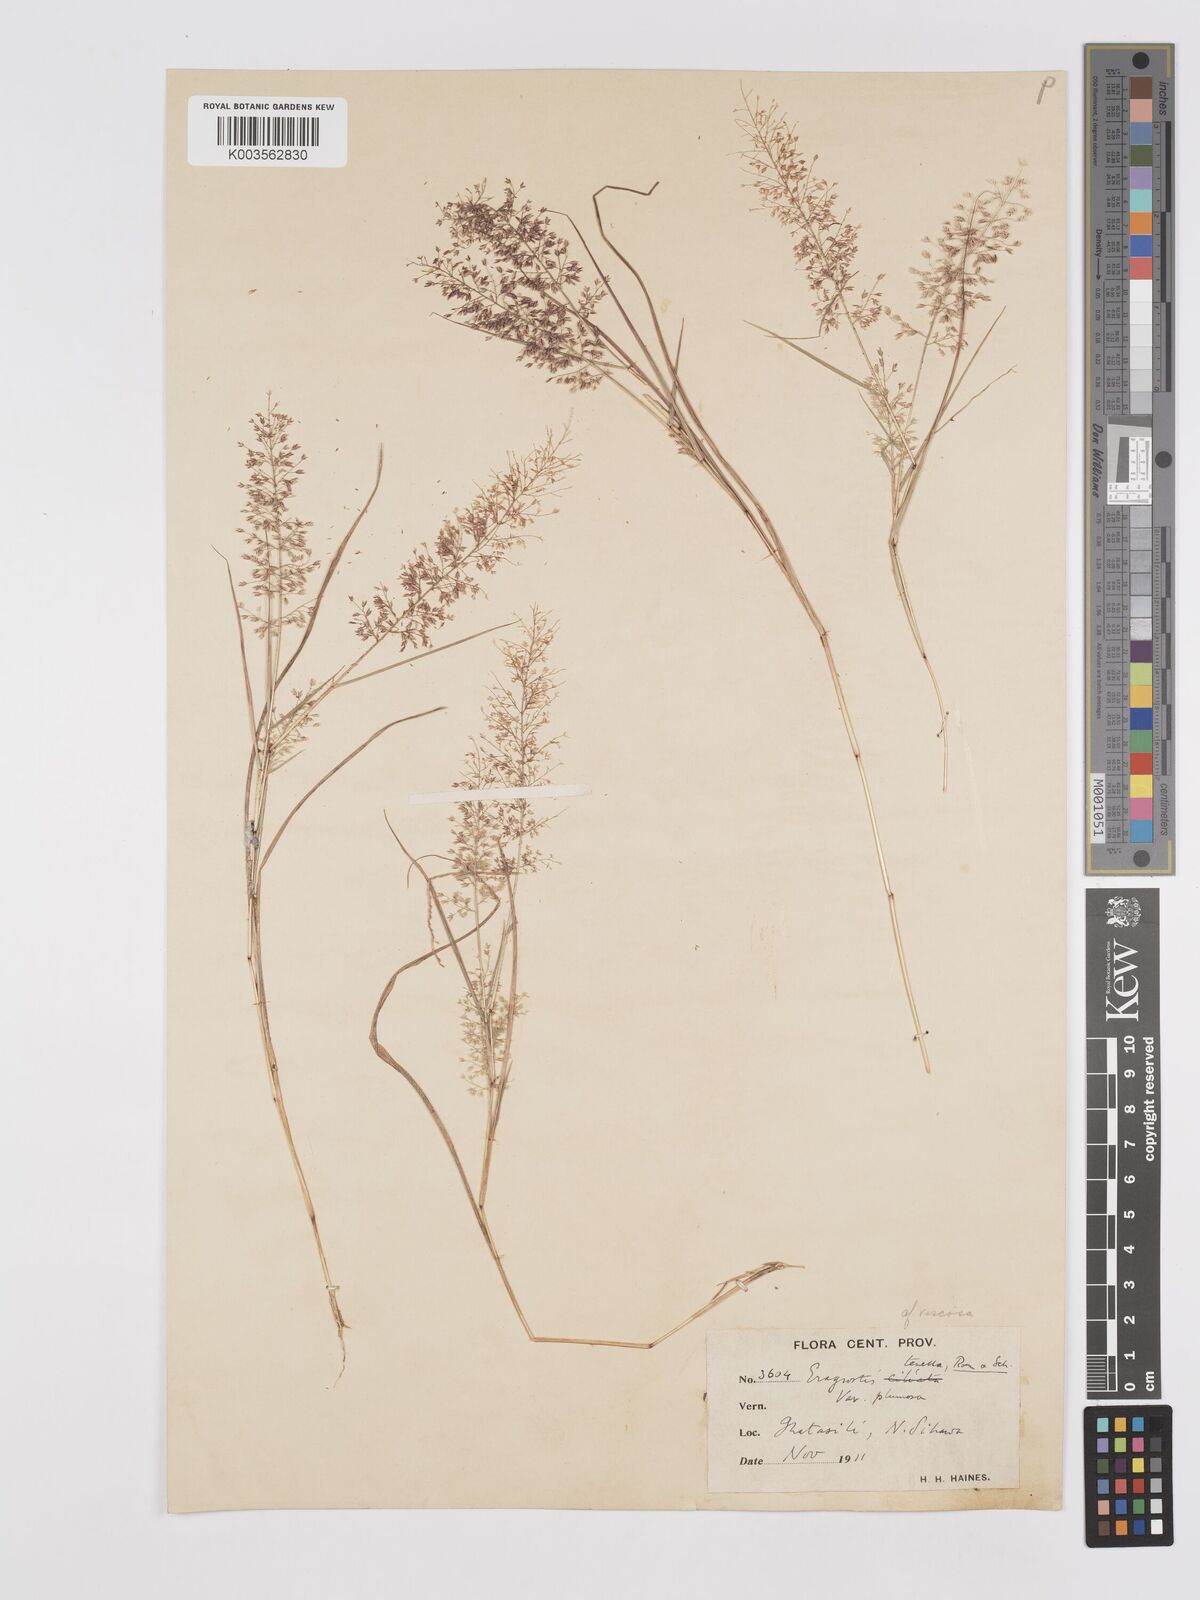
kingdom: Plantae
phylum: Tracheophyta
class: Liliopsida
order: Poales
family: Poaceae
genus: Eragrostis
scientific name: Eragrostis viscosa
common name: Sticky love grass
